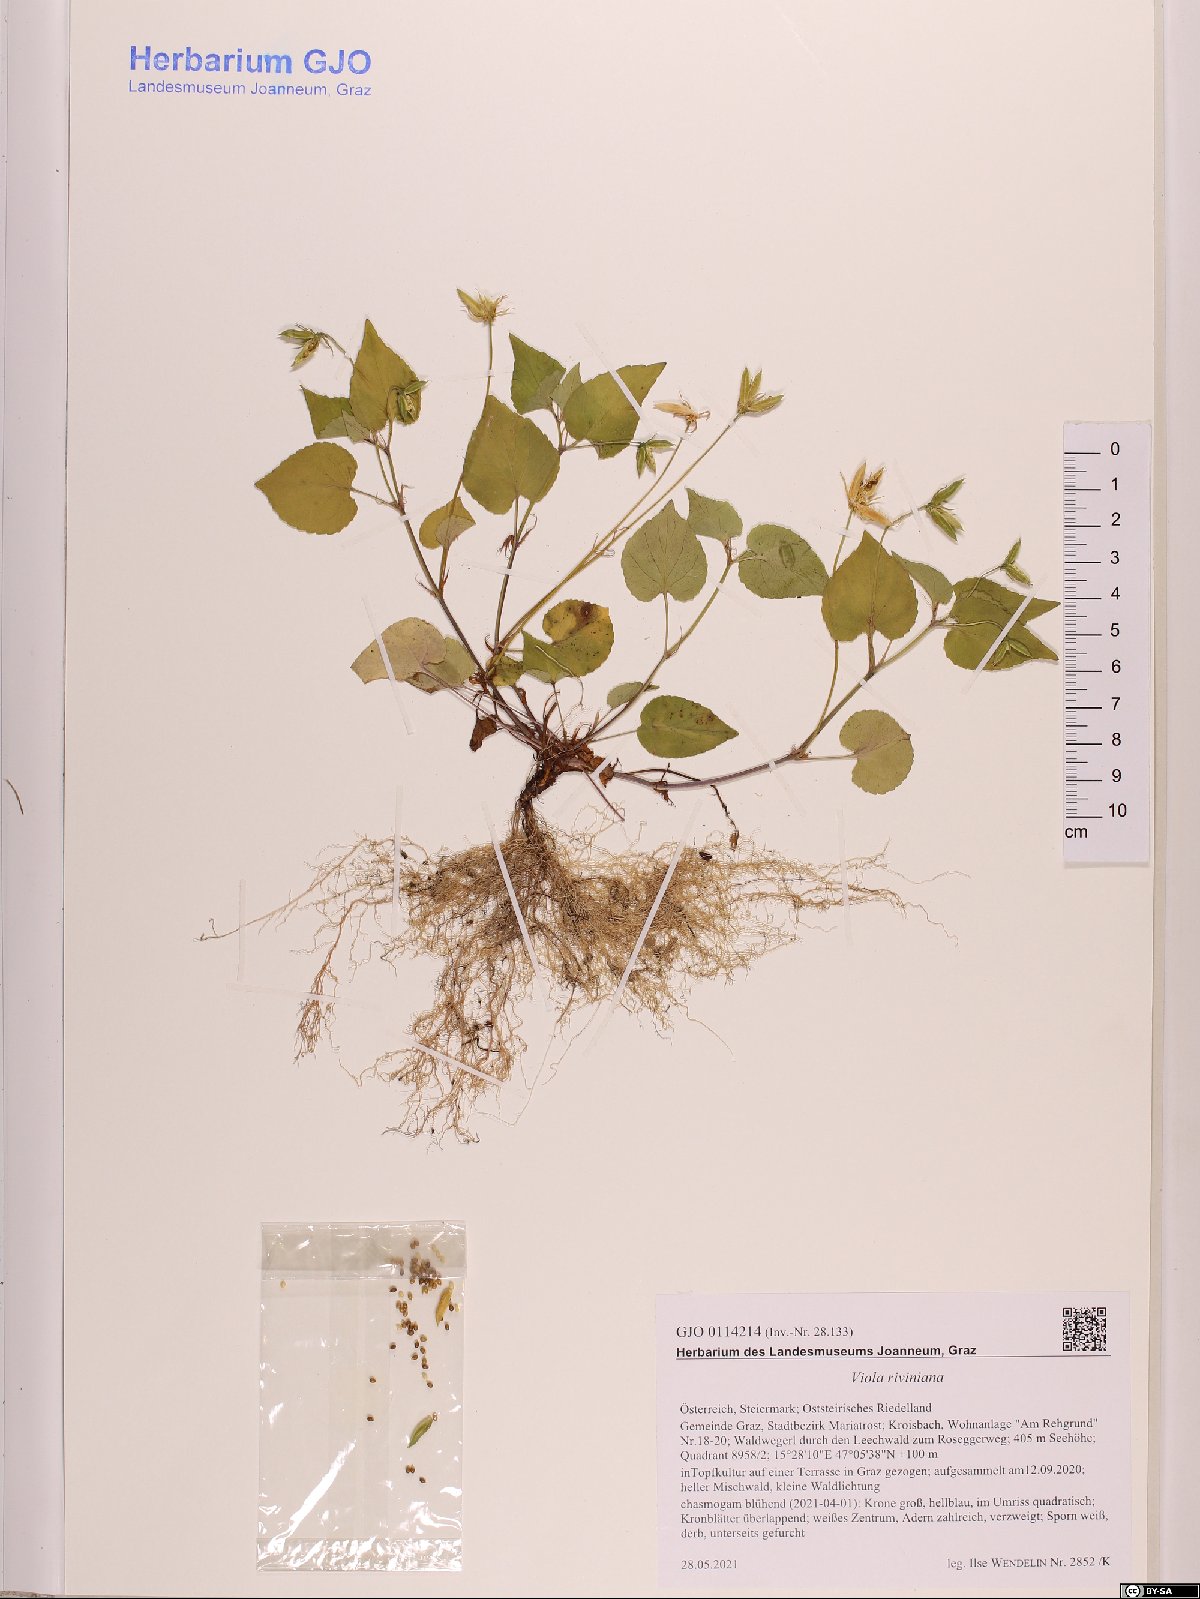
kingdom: Plantae
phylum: Tracheophyta
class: Magnoliopsida
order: Malpighiales
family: Violaceae
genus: Viola
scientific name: Viola riviniana
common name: Common dog-violet
